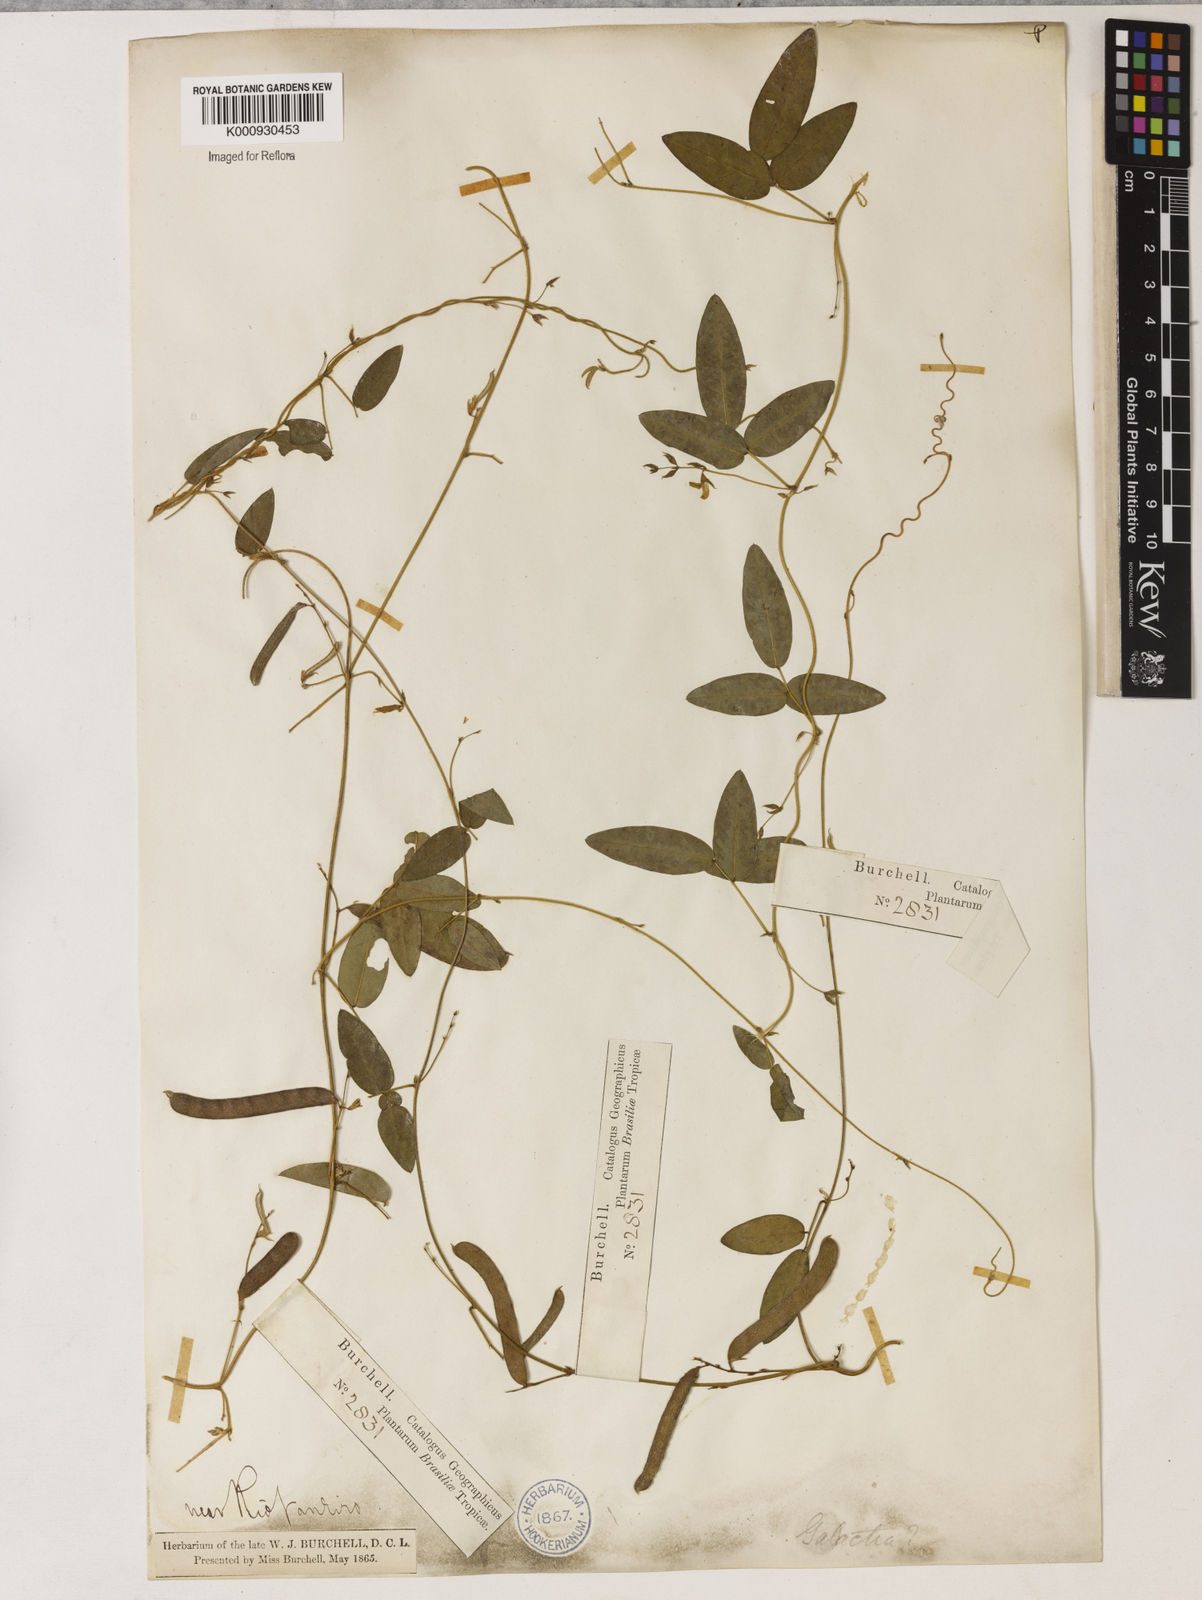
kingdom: Plantae
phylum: Tracheophyta
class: Magnoliopsida
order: Fabales
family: Fabaceae
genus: Galactia
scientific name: Galactia striata
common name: Florida hammock milkpea
